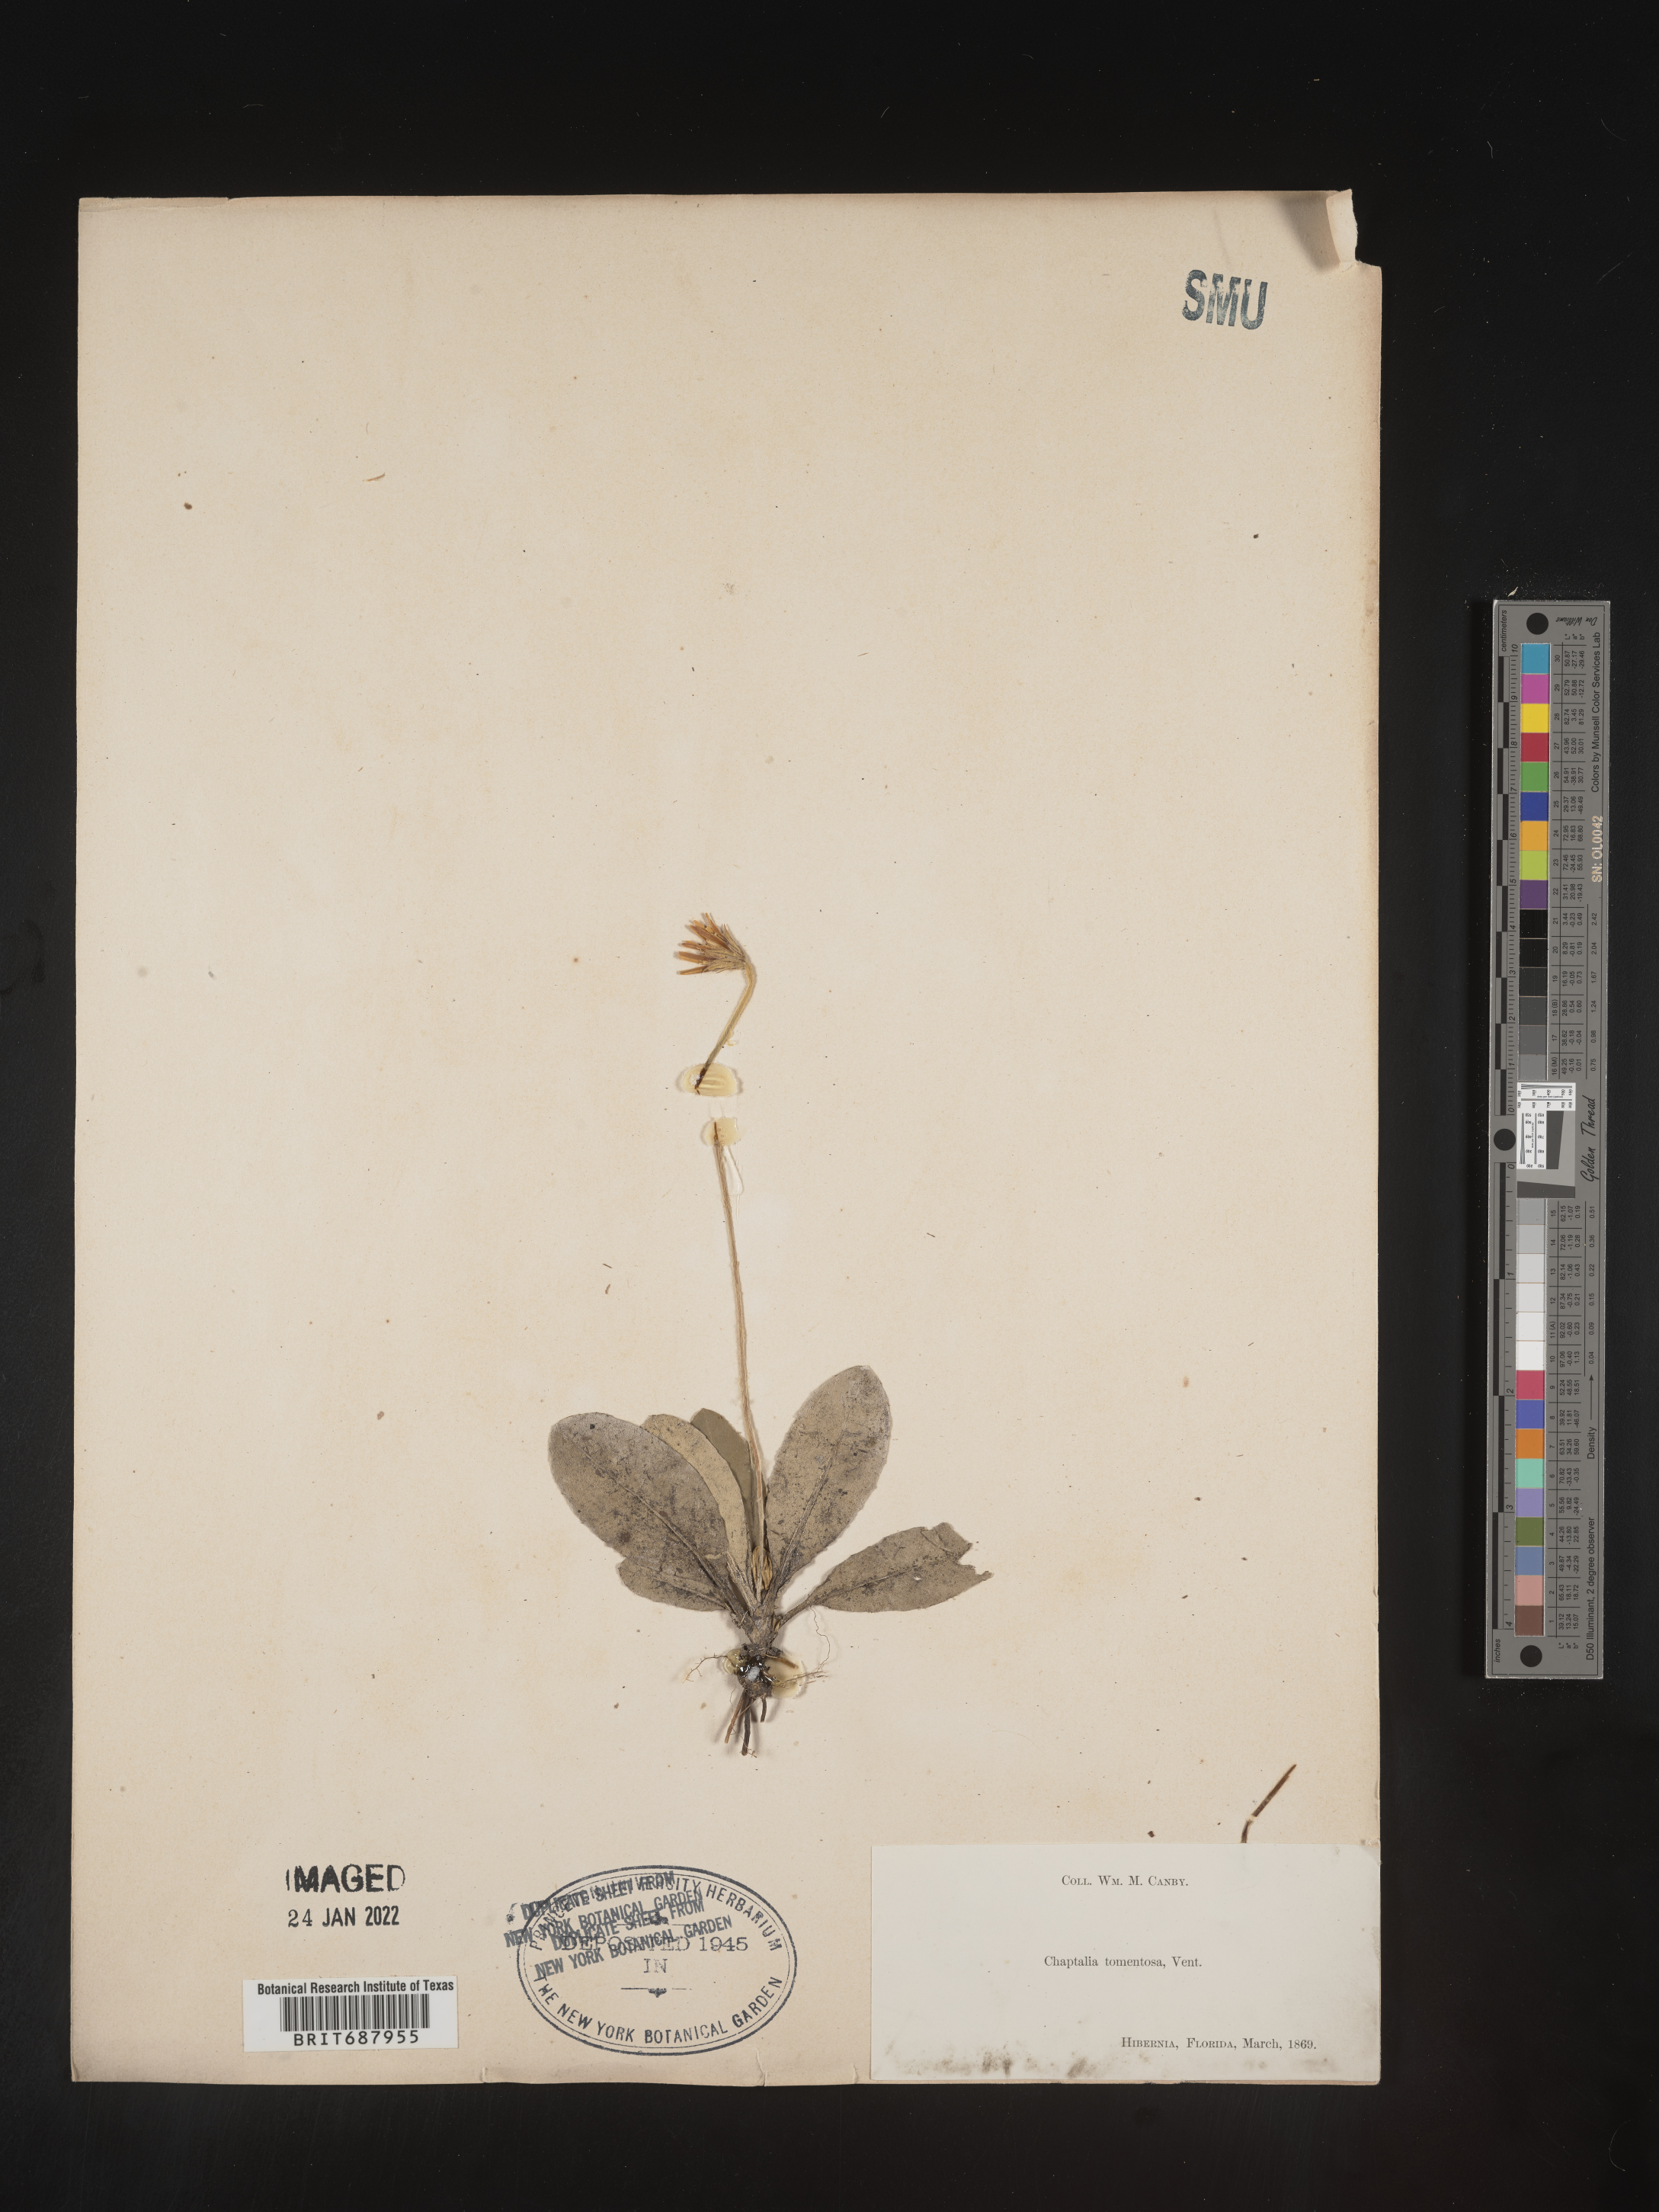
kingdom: Plantae
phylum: Tracheophyta
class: Magnoliopsida
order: Asterales
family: Asteraceae
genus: Chaptalia
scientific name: Chaptalia tomentosa
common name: Woolly sunbonnet
